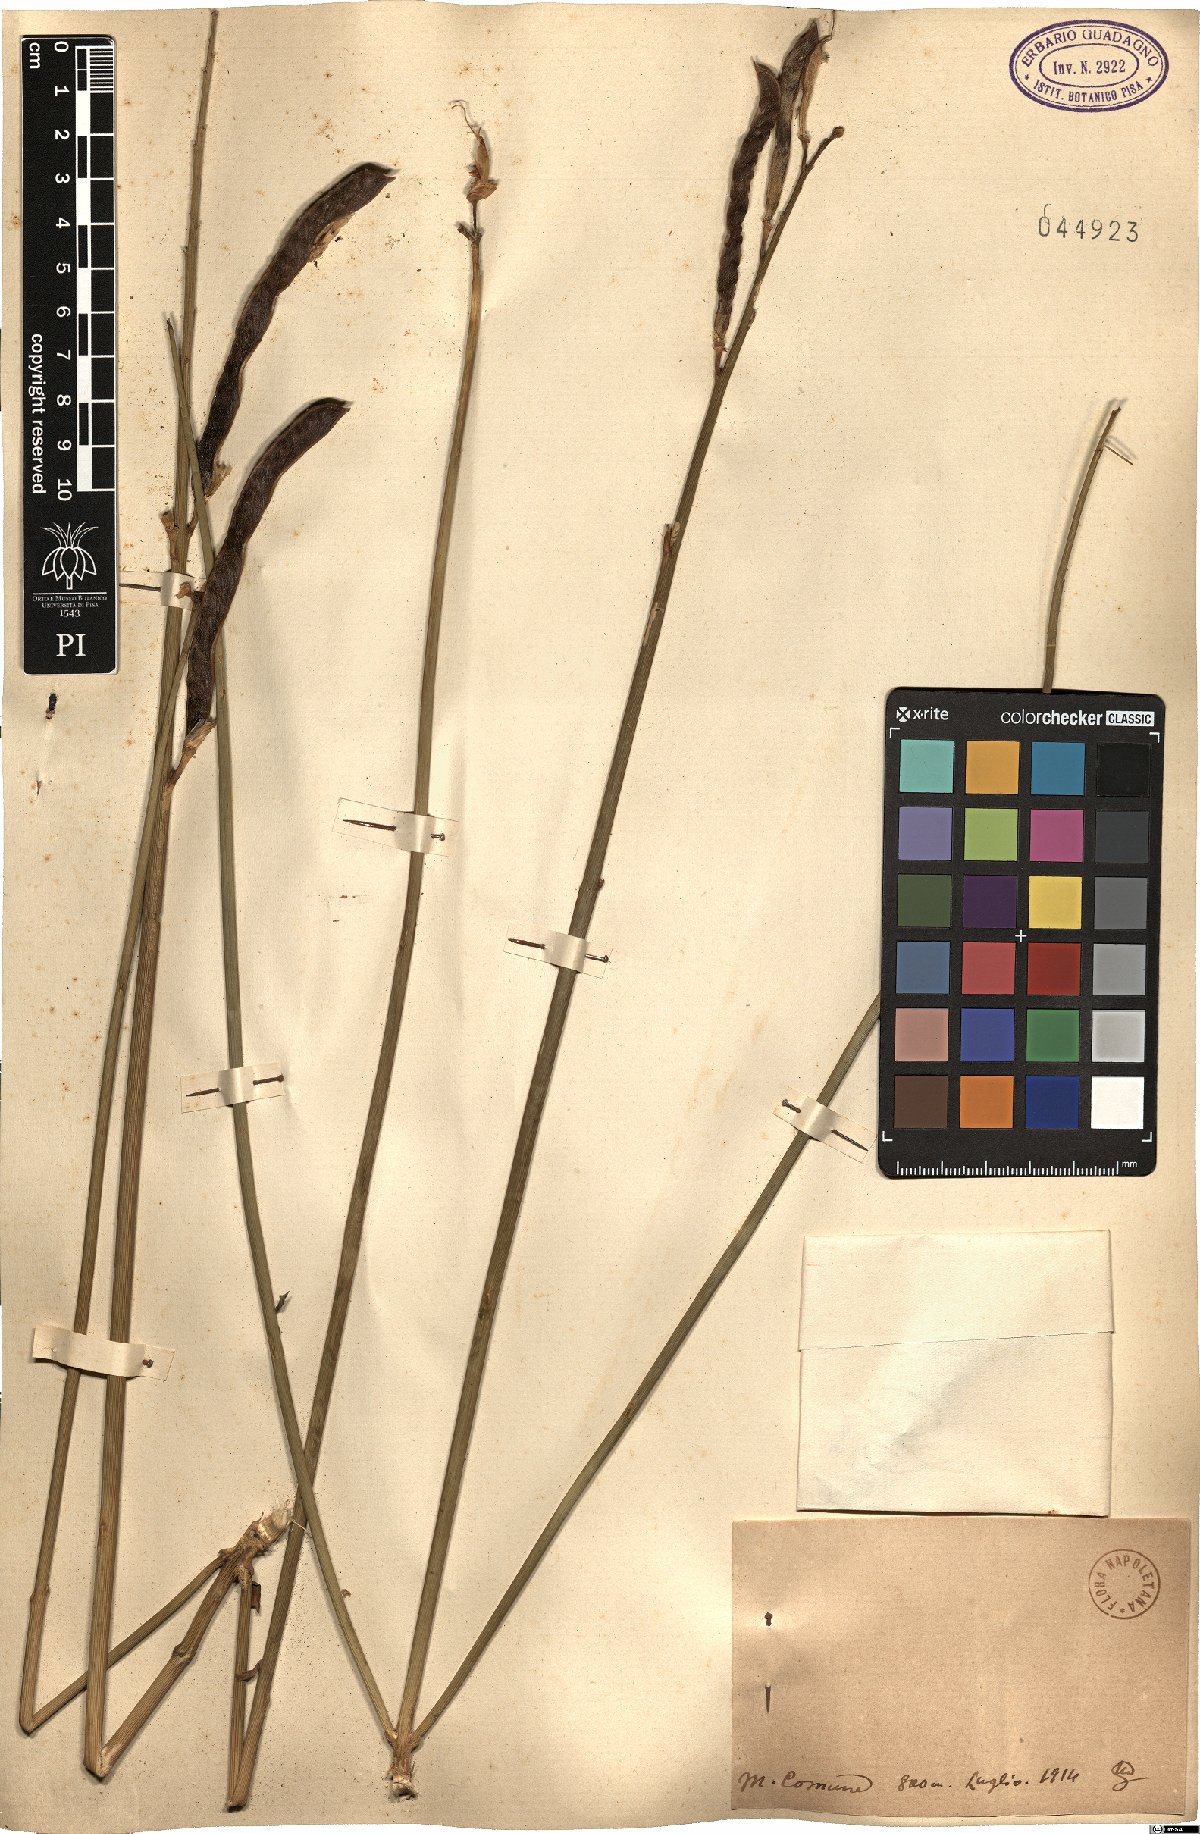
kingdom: Plantae
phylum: Tracheophyta
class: Magnoliopsida
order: Fabales
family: Fabaceae
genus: Spartium
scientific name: Spartium
